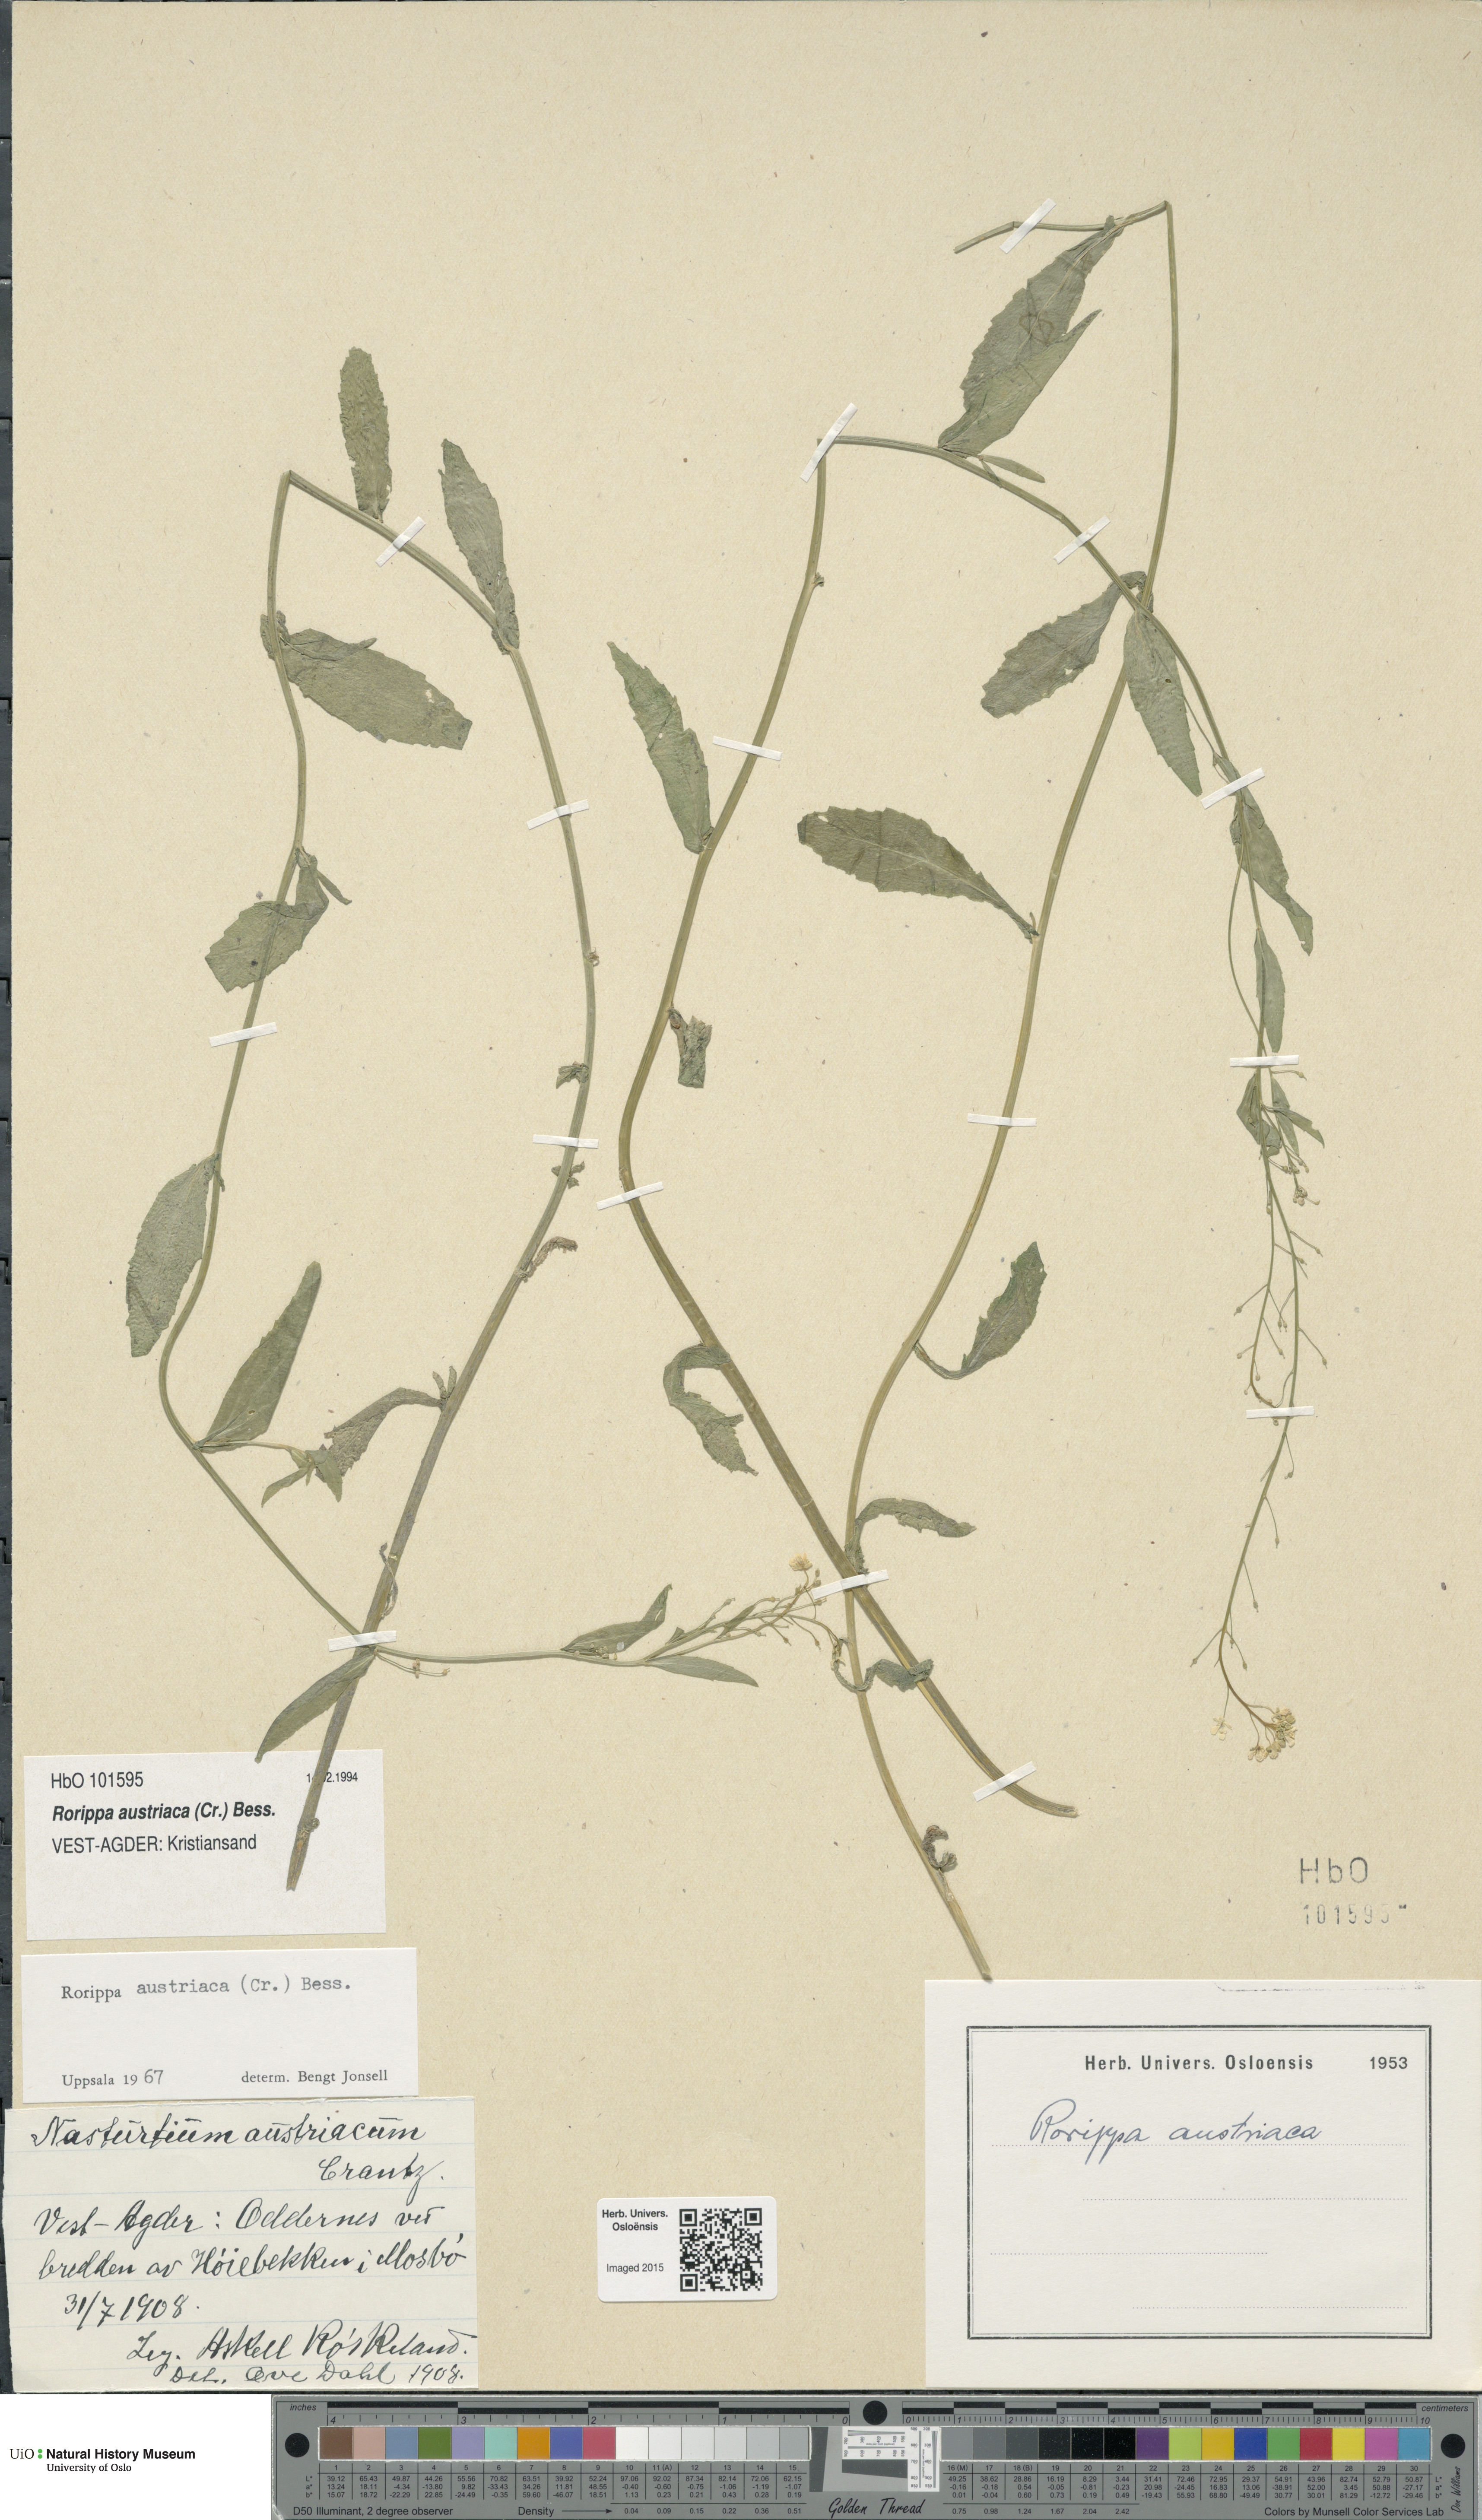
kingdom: Plantae
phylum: Tracheophyta
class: Magnoliopsida
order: Brassicales
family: Brassicaceae
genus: Rorippa
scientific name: Rorippa austriaca
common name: Austrian yellow-cress
